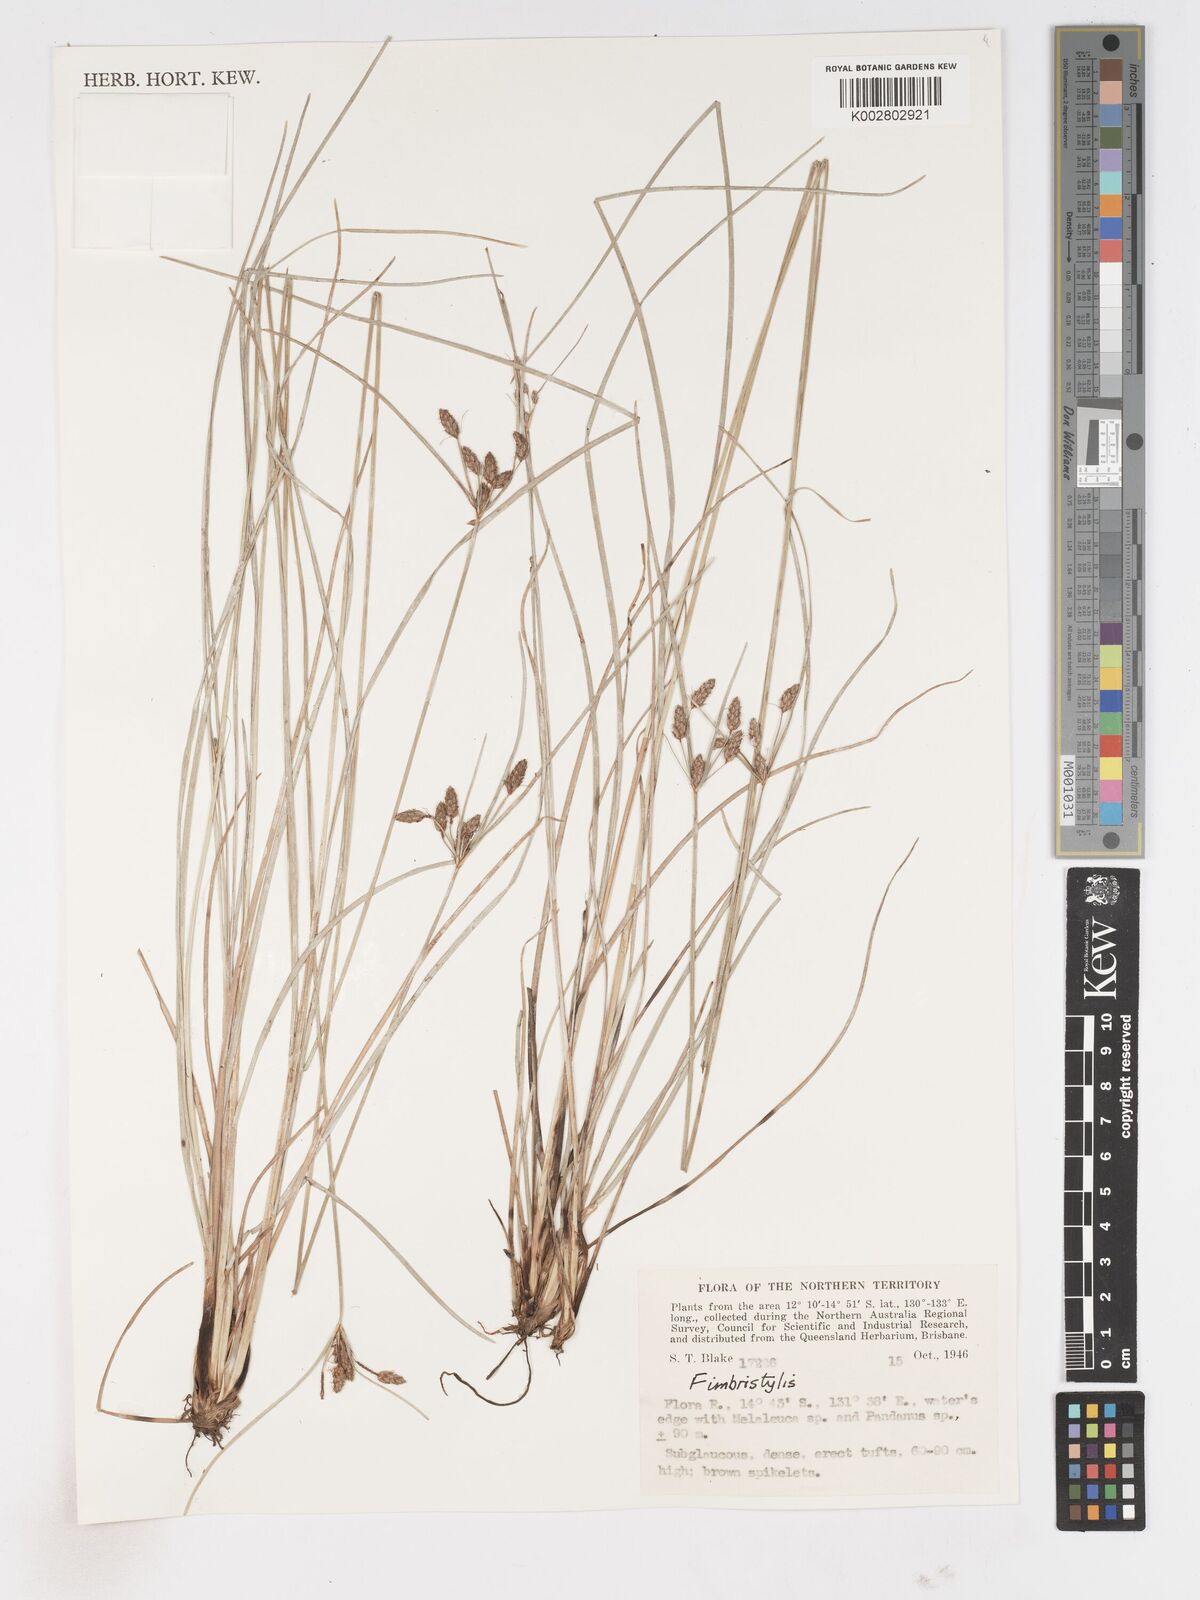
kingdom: Plantae
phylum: Tracheophyta
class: Liliopsida
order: Poales
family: Cyperaceae
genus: Fimbristylis
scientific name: Fimbristylis
